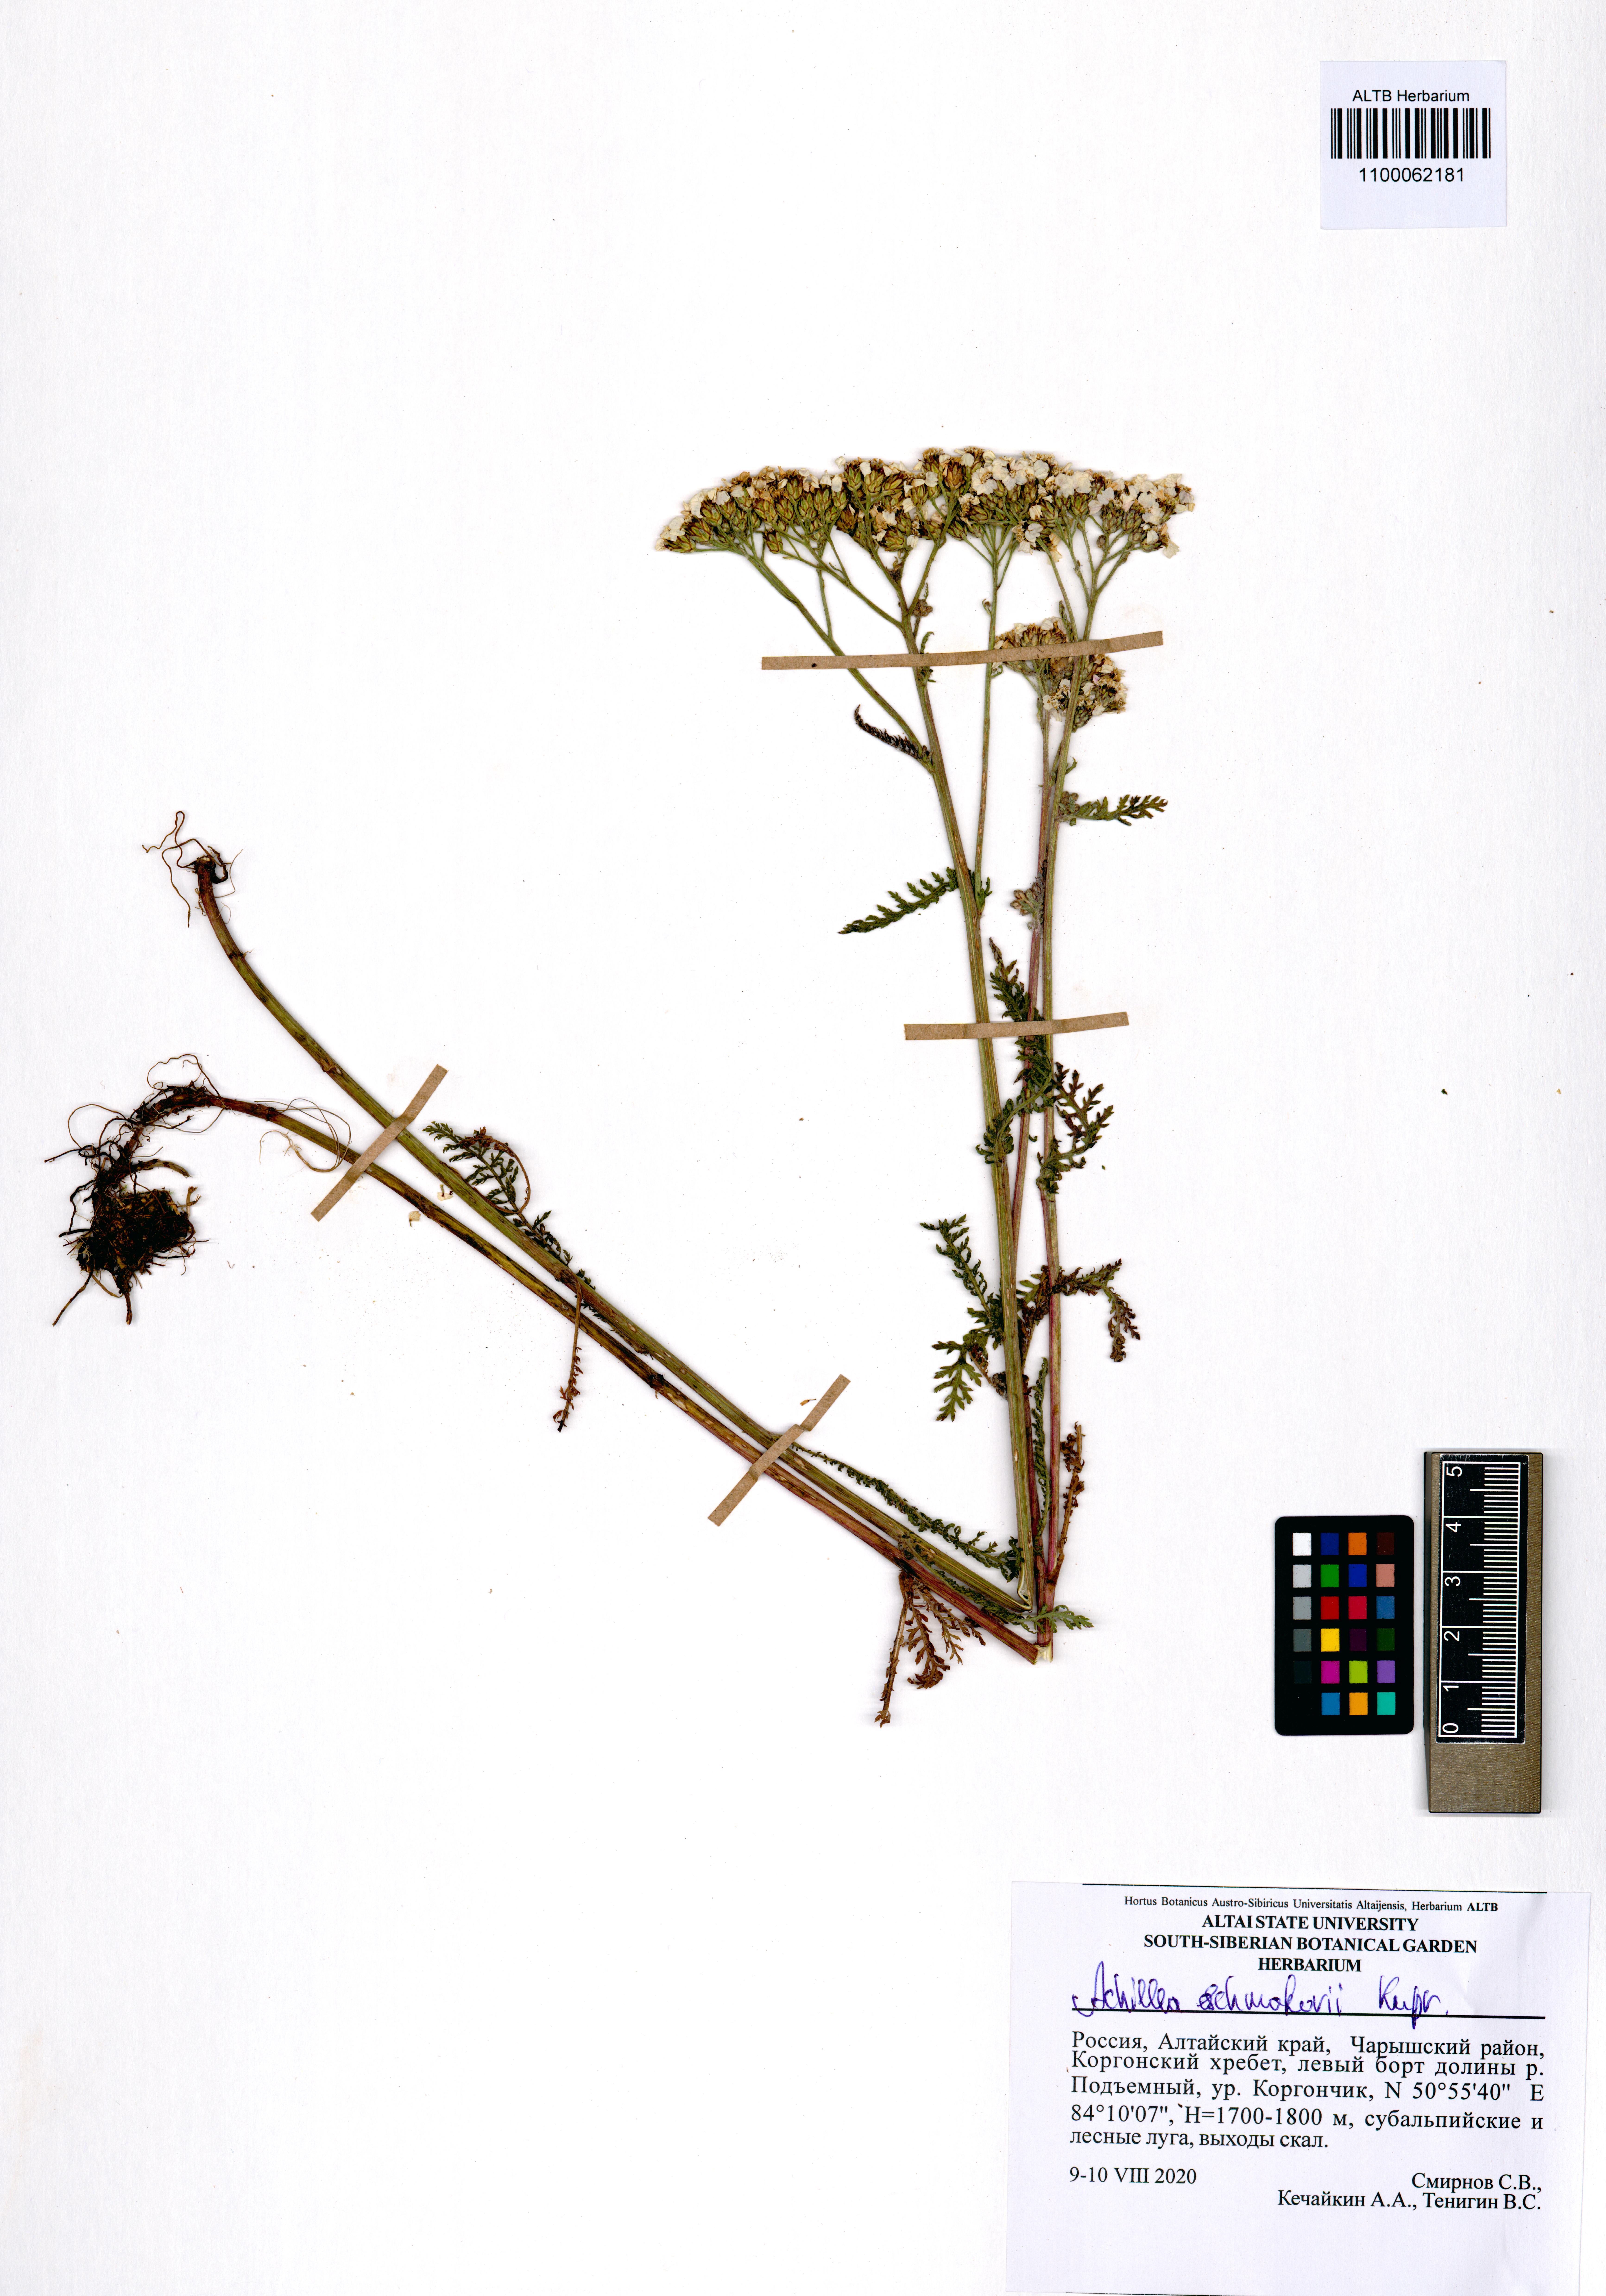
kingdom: Plantae
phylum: Tracheophyta
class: Magnoliopsida
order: Asterales
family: Asteraceae
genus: Achillea
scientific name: Achillea schmakovii
